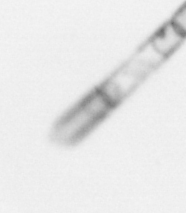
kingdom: Chromista
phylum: Ochrophyta
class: Bacillariophyceae
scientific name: Bacillariophyceae
